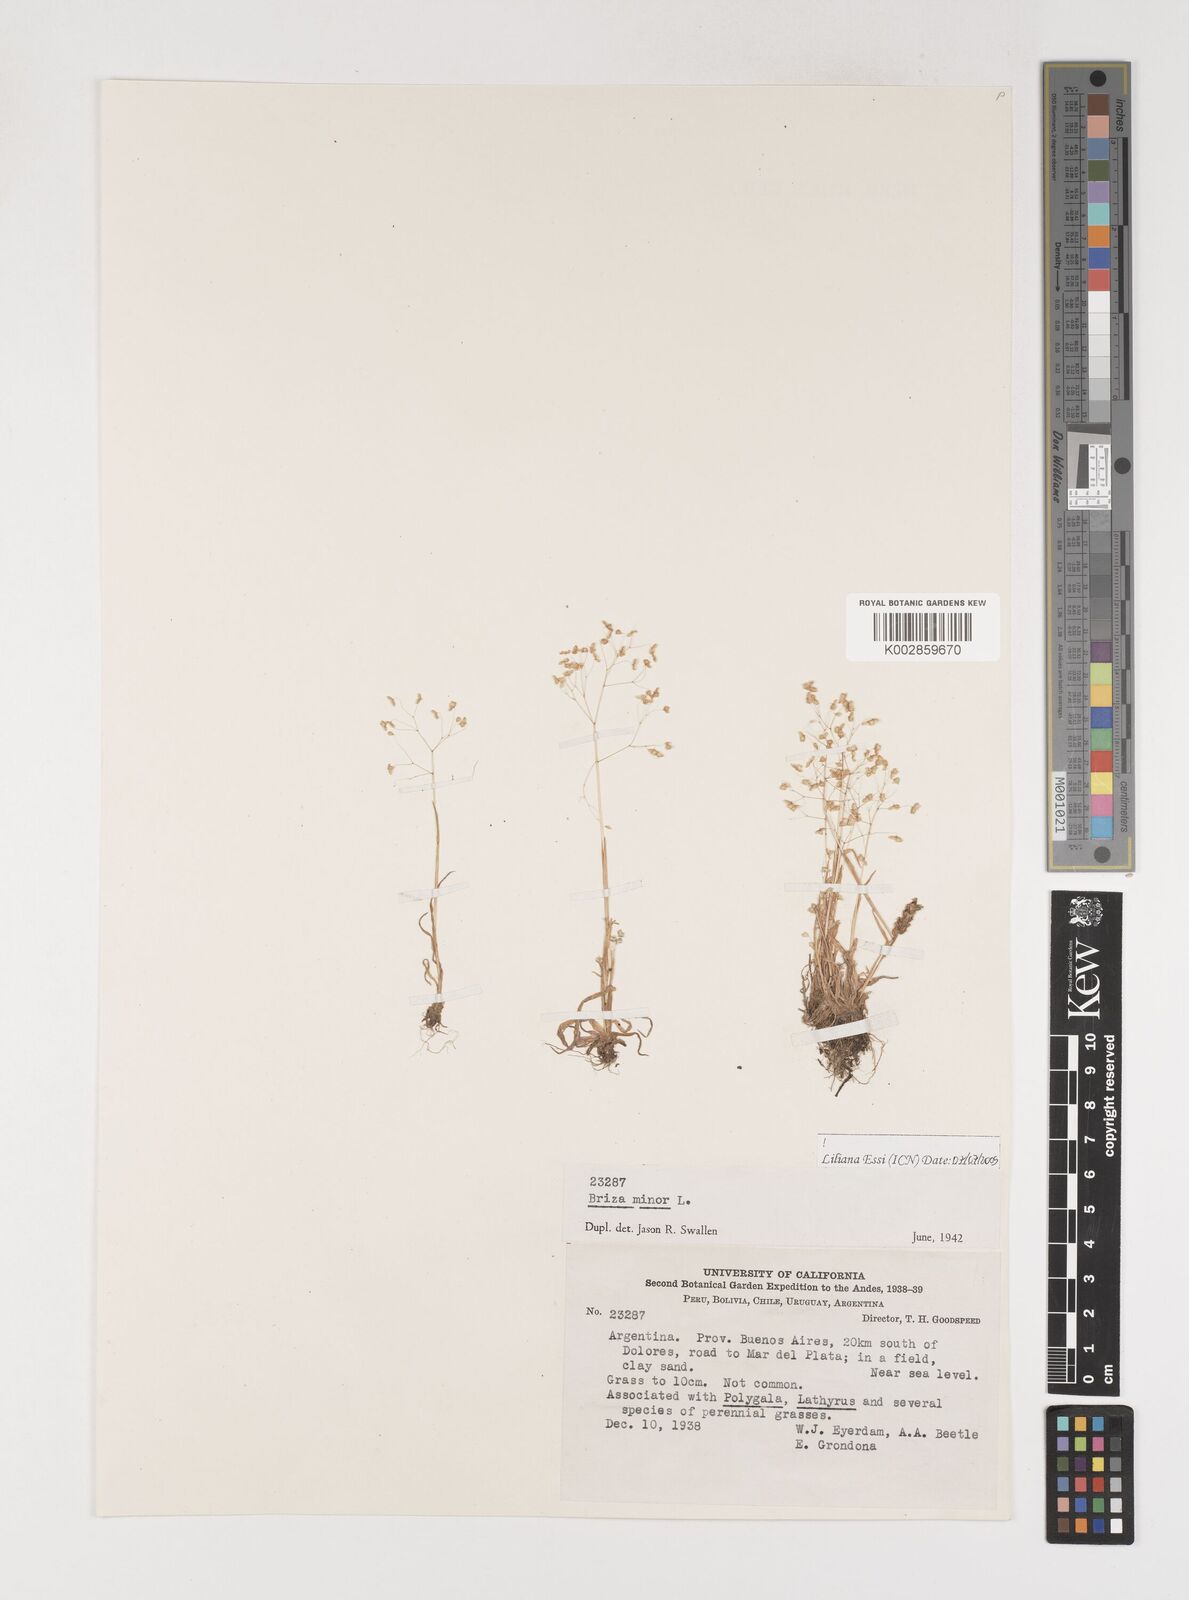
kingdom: Plantae
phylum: Tracheophyta
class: Liliopsida
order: Poales
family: Poaceae
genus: Briza
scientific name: Briza minor
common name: Lesser quaking-grass
